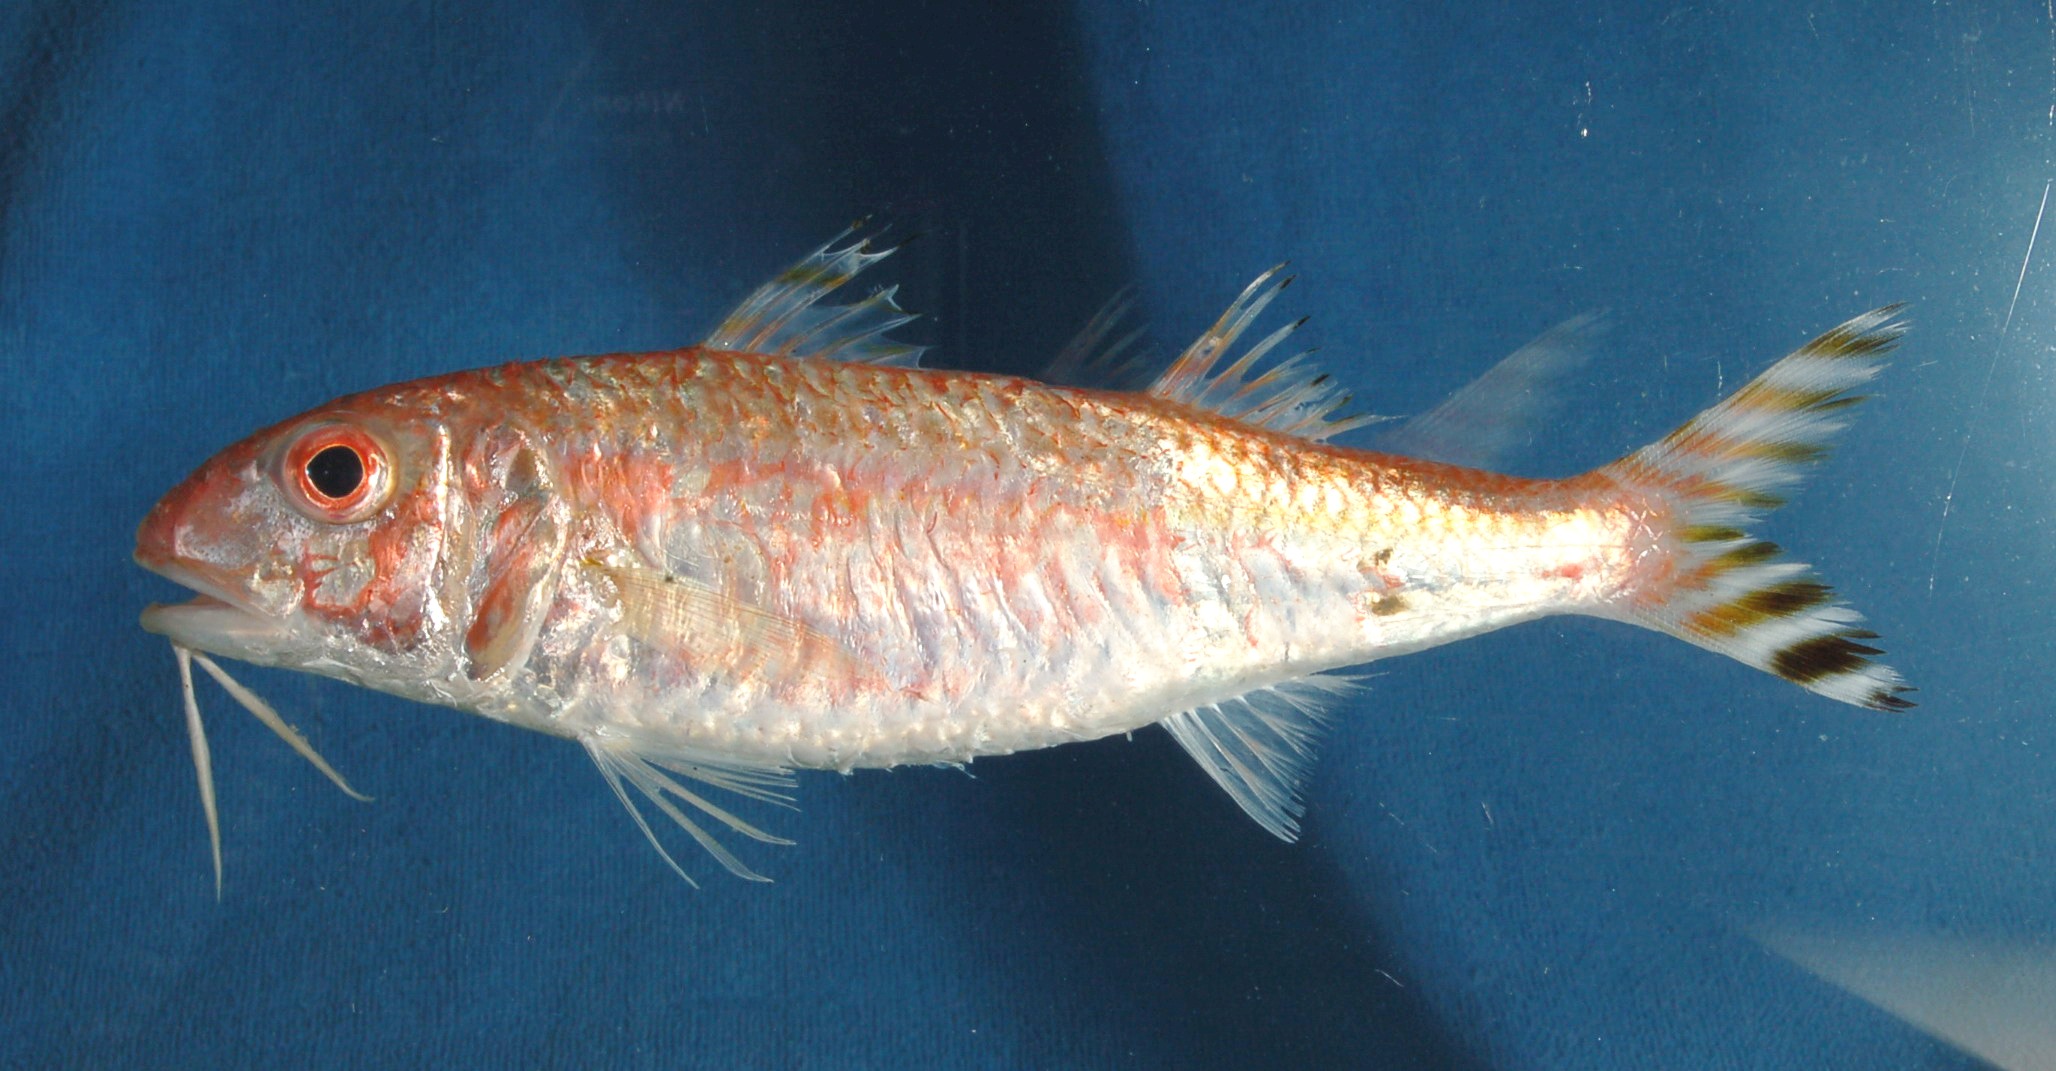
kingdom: Animalia
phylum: Chordata
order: Perciformes
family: Mullidae
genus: Upeneus
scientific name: Upeneus suahelicus
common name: Swahili goatfish
